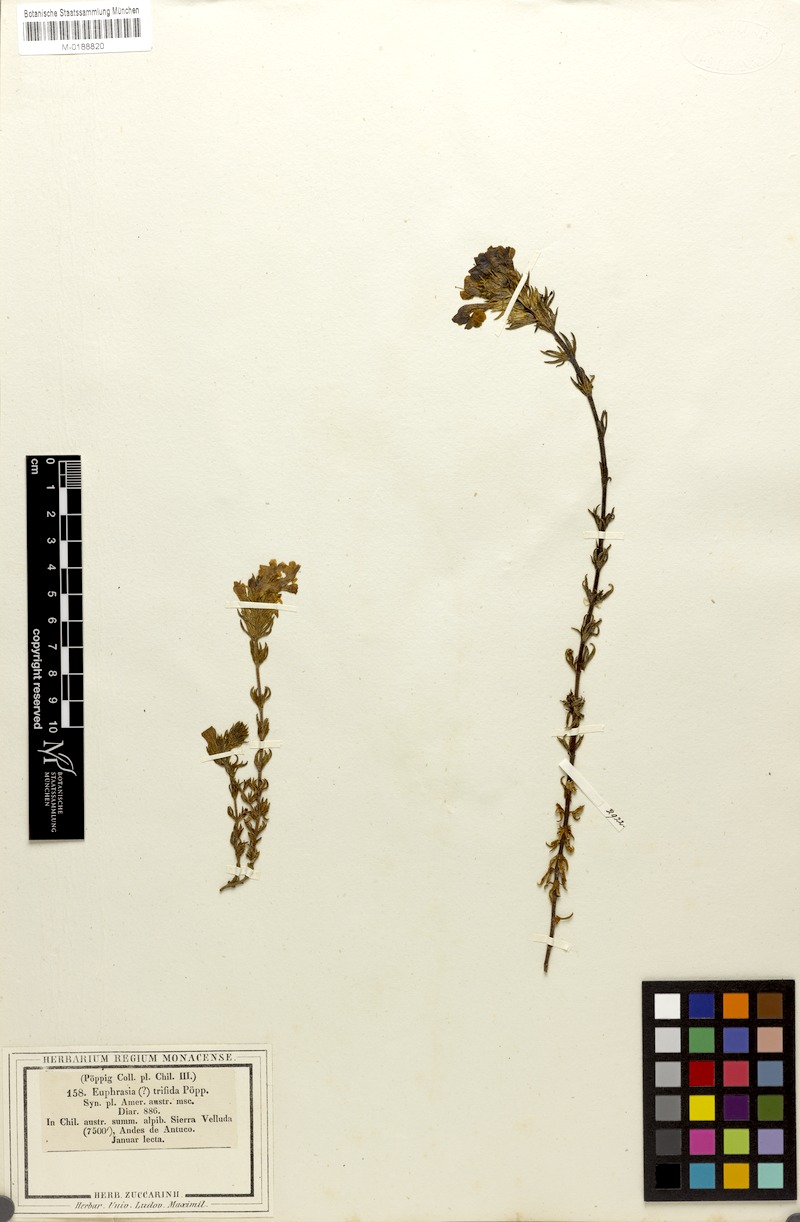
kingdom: Plantae
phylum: Tracheophyta
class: Magnoliopsida
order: Lamiales
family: Orobanchaceae
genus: Euphrasia
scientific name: Euphrasia trifida
